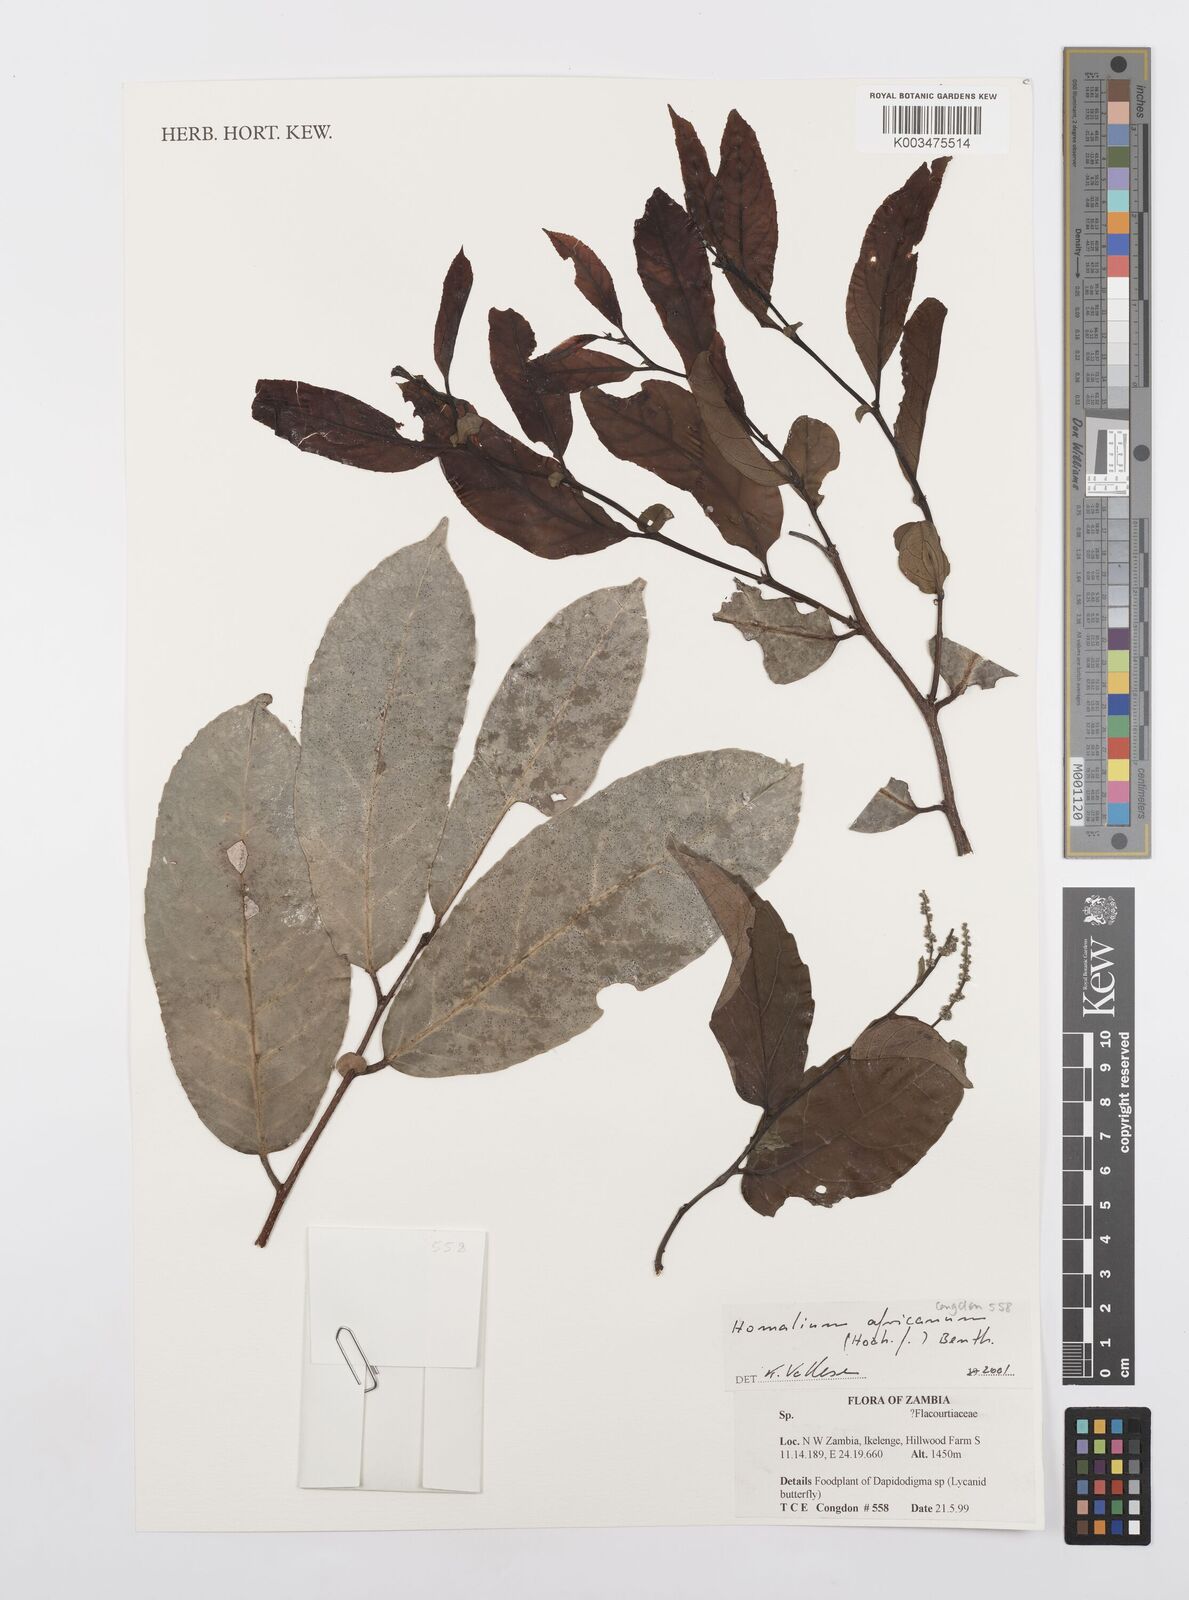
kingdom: Plantae
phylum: Tracheophyta
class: Magnoliopsida
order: Malpighiales
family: Salicaceae
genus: Homalium
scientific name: Homalium africanum
